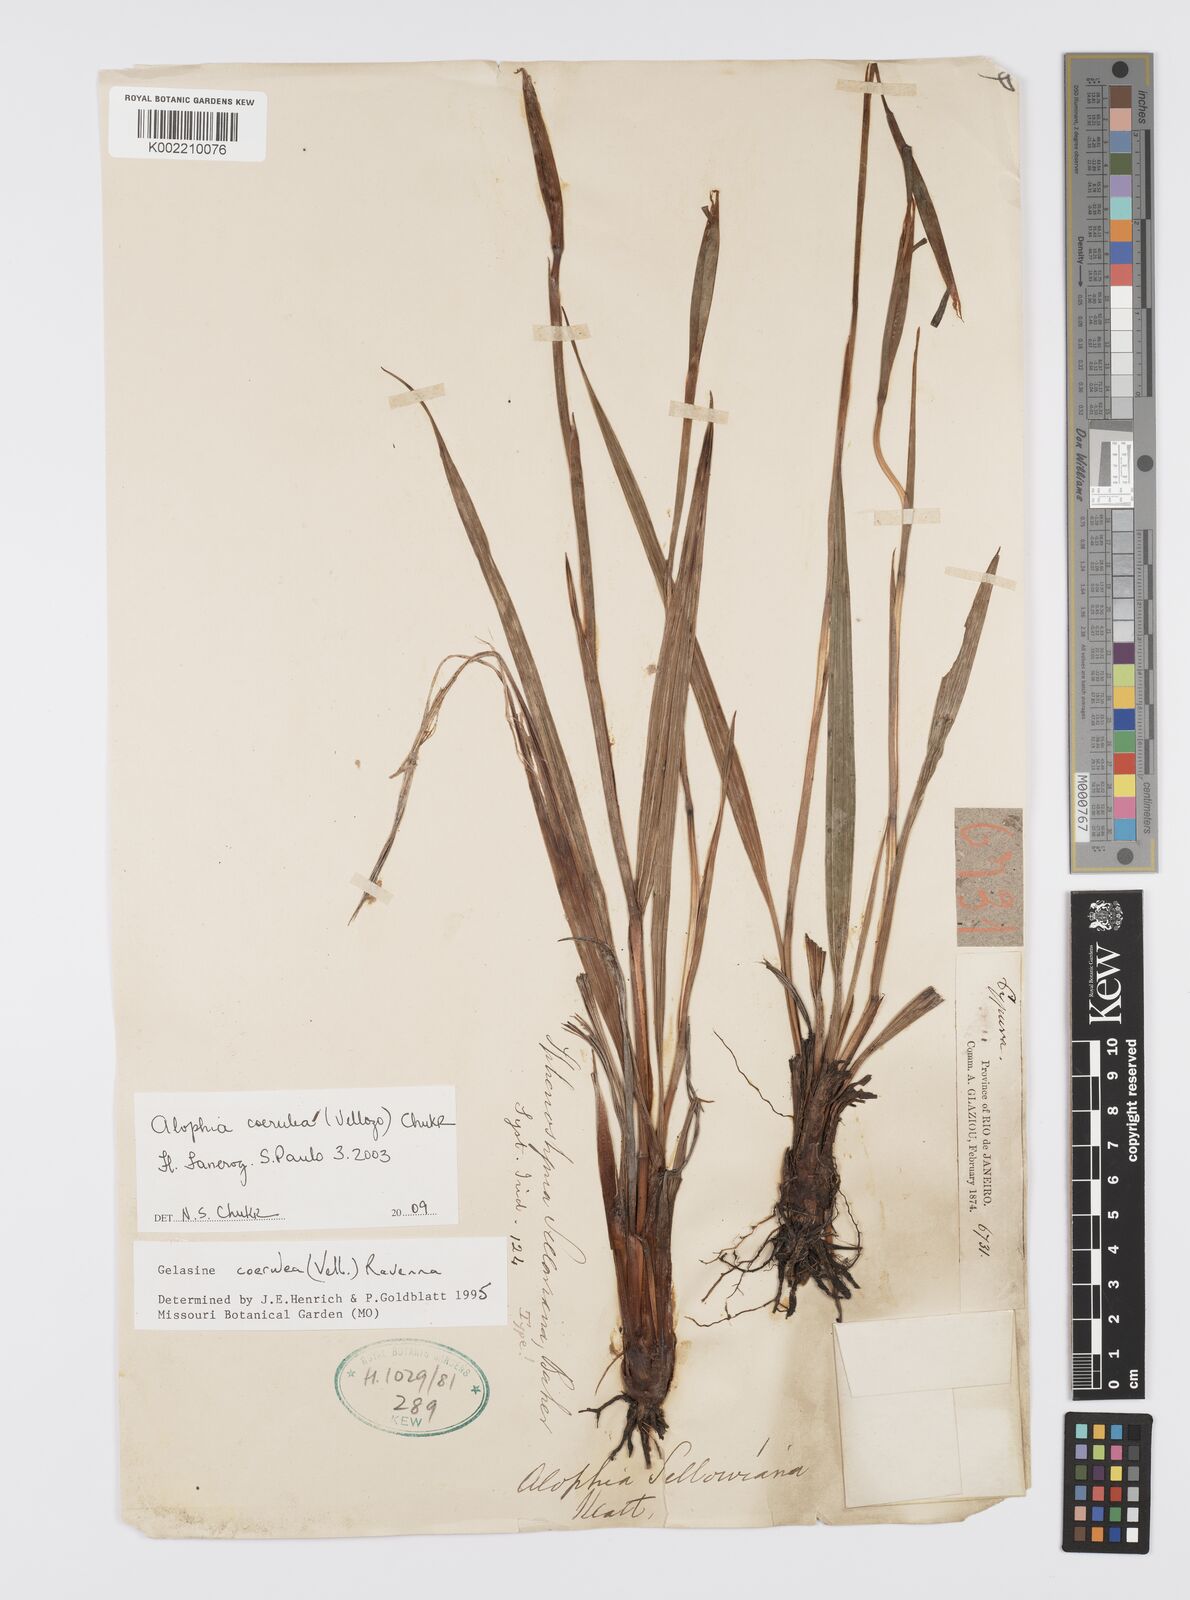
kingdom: Plantae
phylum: Tracheophyta
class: Liliopsida
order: Asparagales
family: Iridaceae
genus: Herbertia
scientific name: Herbertia lahue
